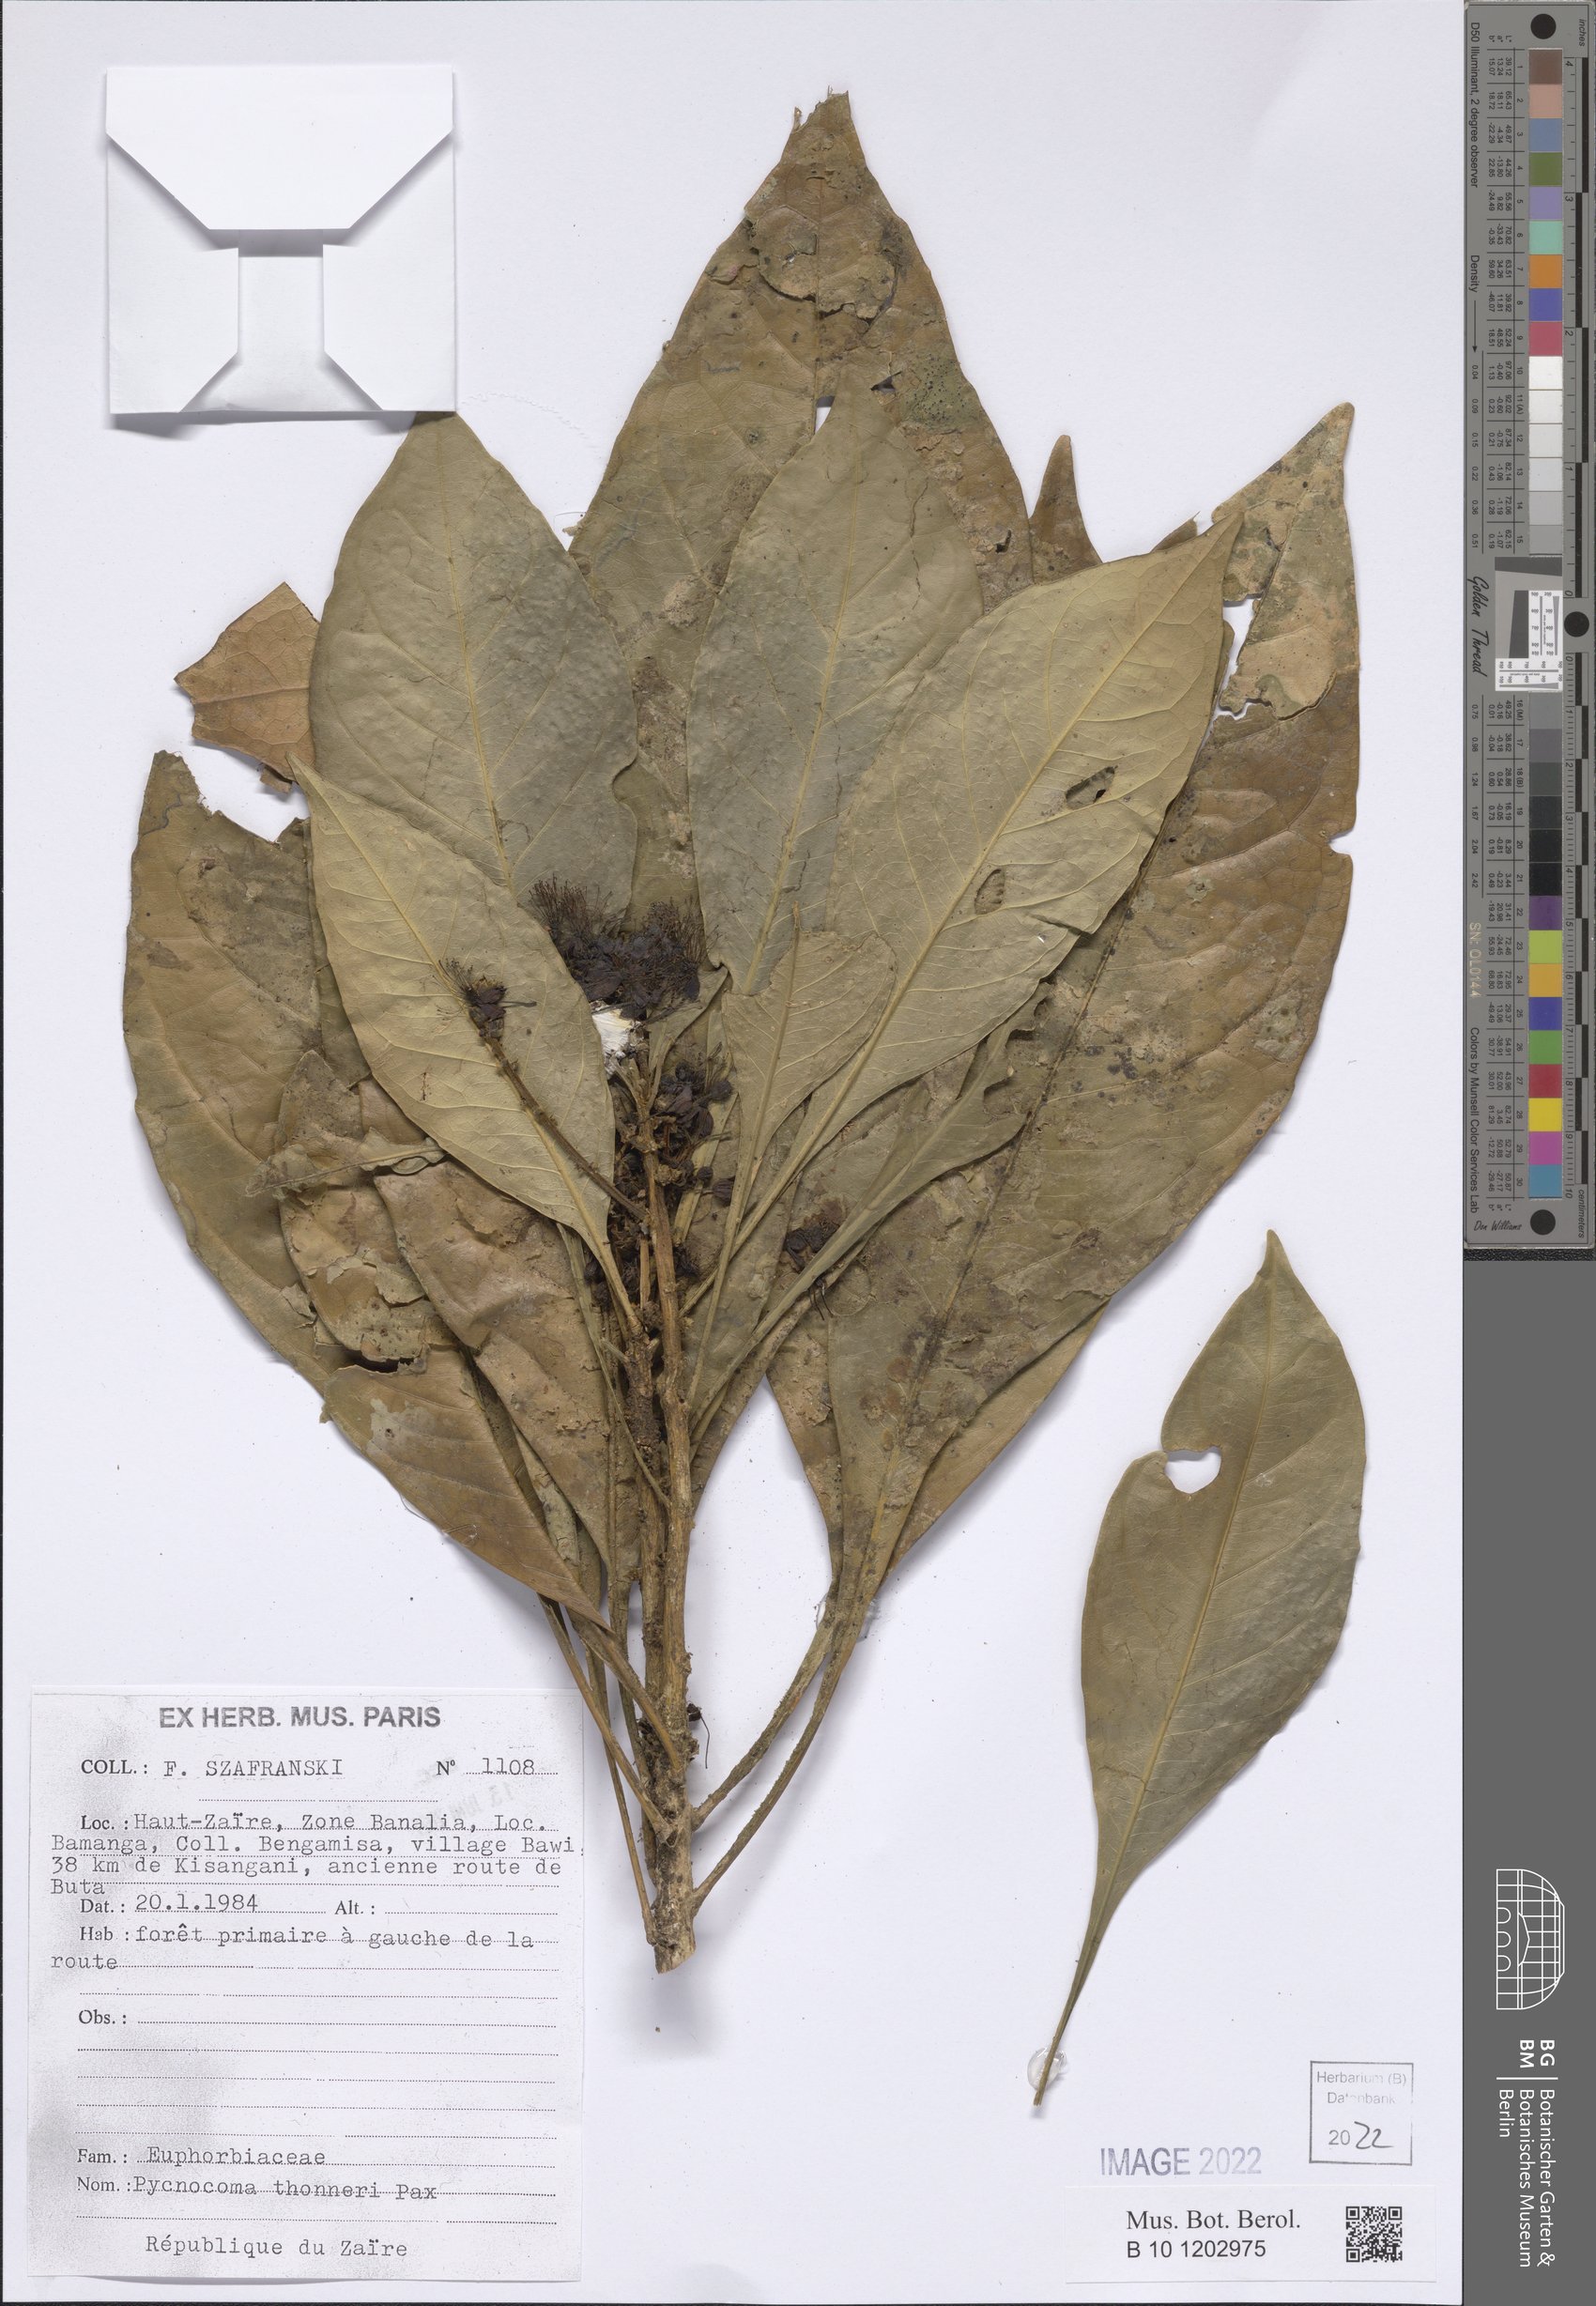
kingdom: Plantae
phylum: Tracheophyta
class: Magnoliopsida
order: Malpighiales
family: Euphorbiaceae
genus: Pycnocoma
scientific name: Pycnocoma thonneri
